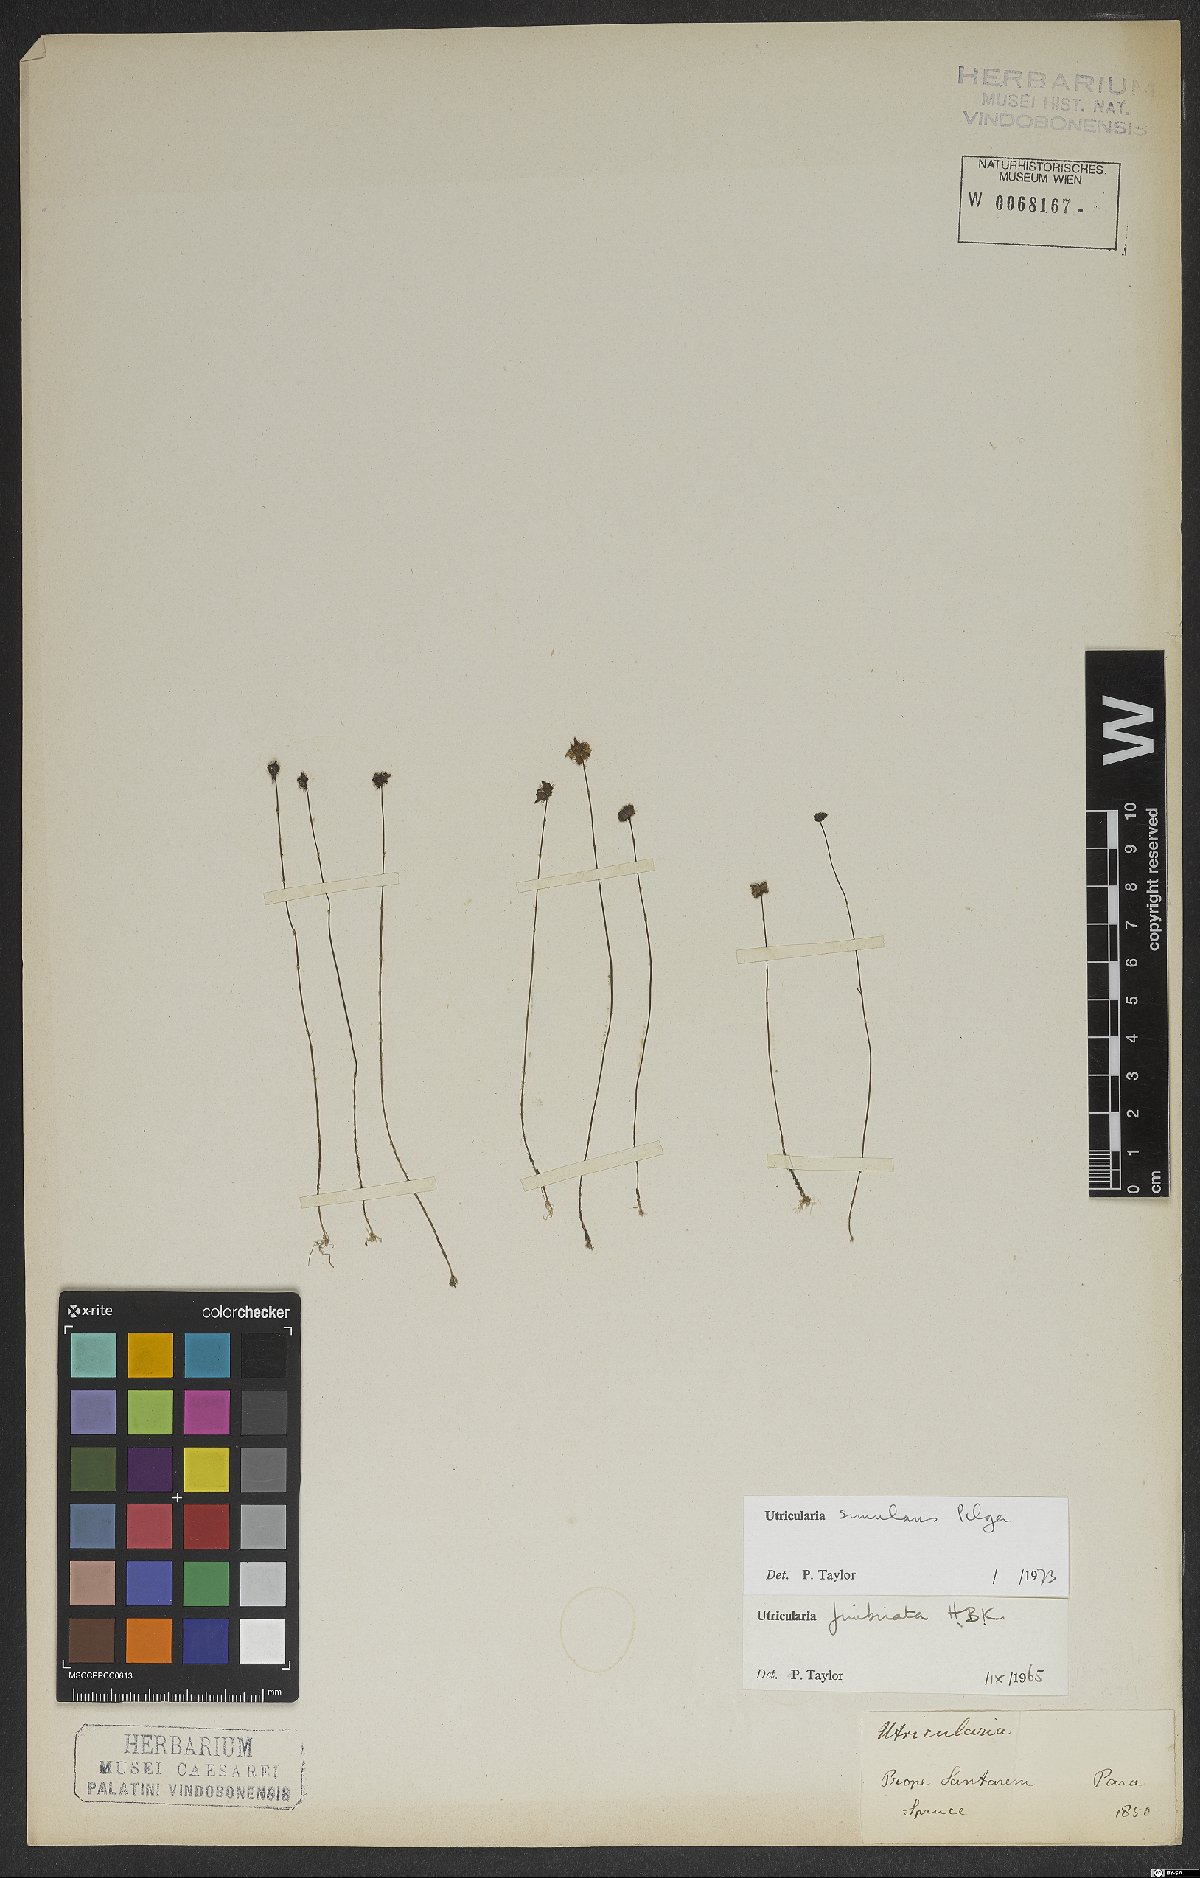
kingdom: Plantae
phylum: Tracheophyta
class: Magnoliopsida
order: Lamiales
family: Lentibulariaceae
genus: Utricularia
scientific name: Utricularia simulans
